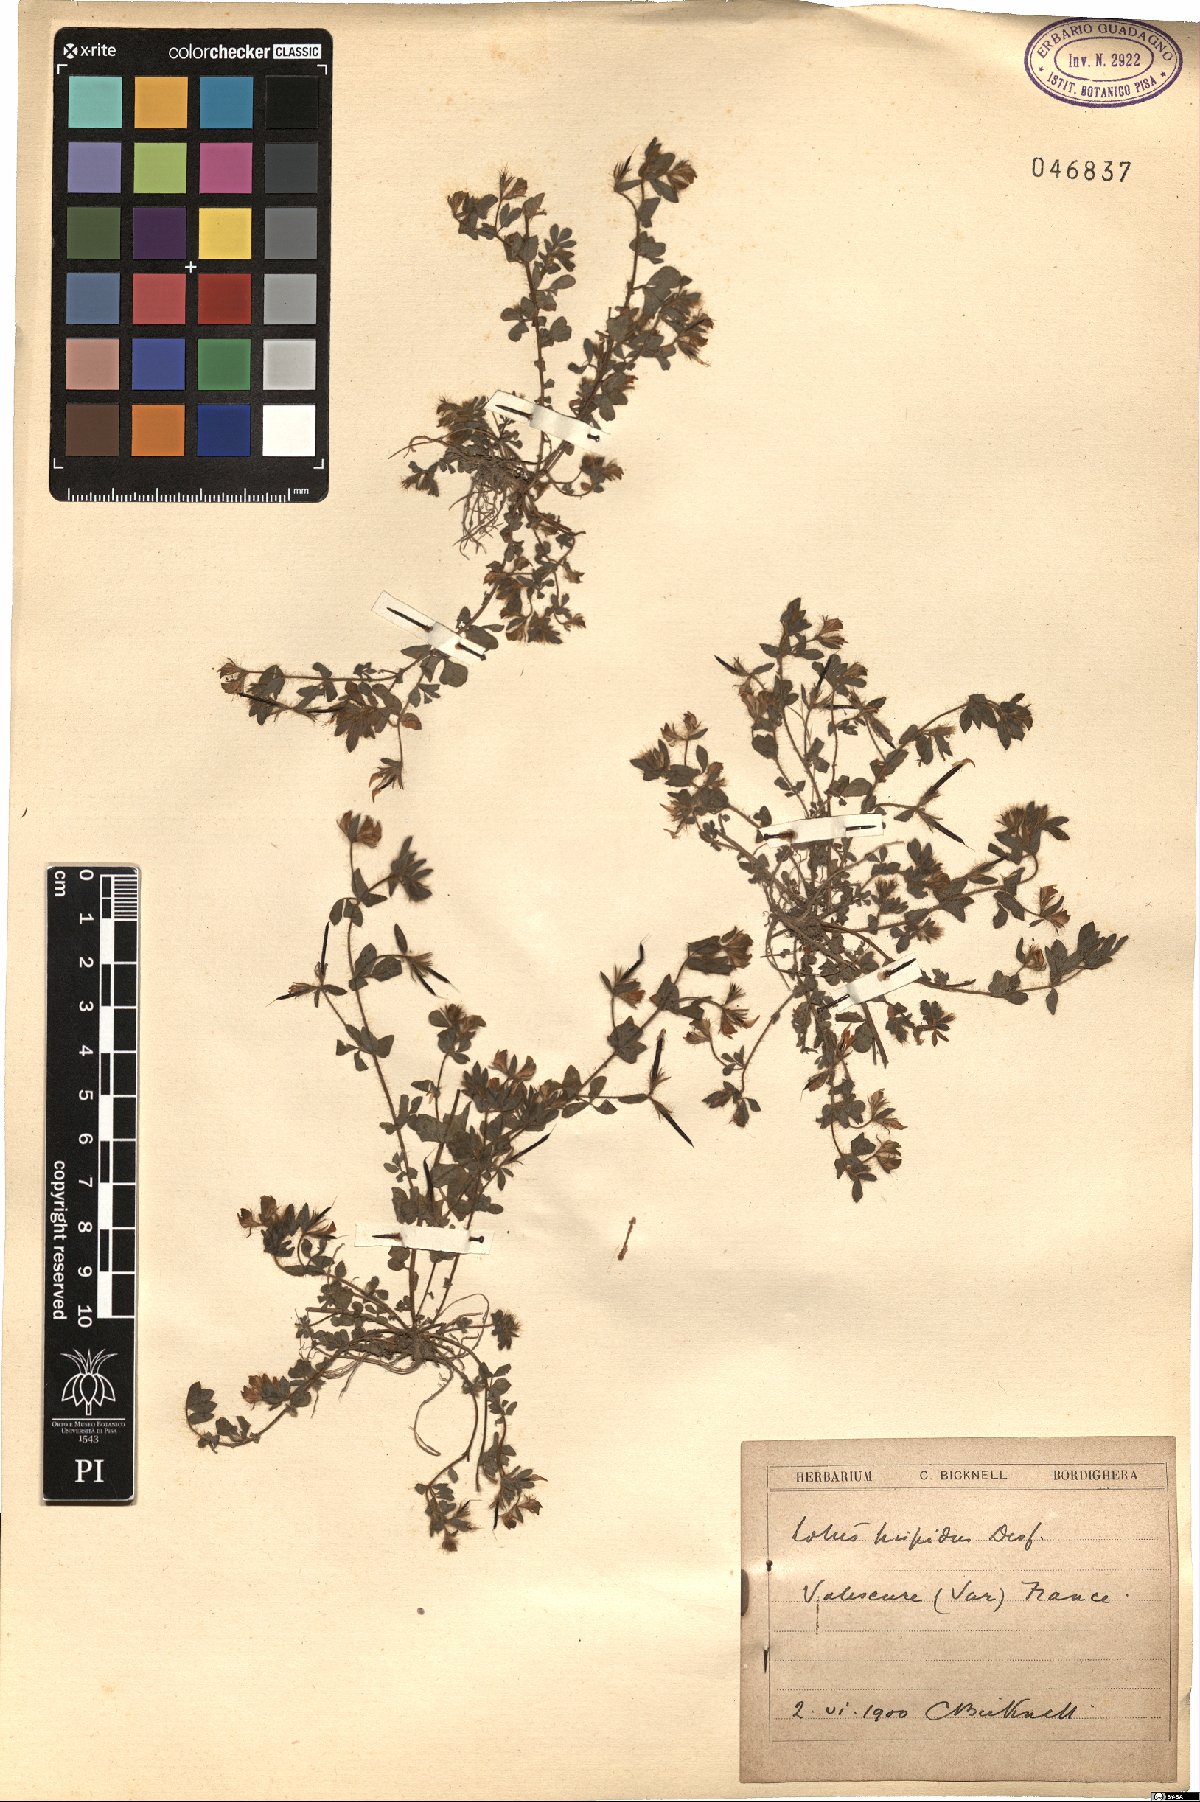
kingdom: Plantae
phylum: Tracheophyta
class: Magnoliopsida
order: Fabales
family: Fabaceae
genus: Lotus
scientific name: Lotus parviflorus
